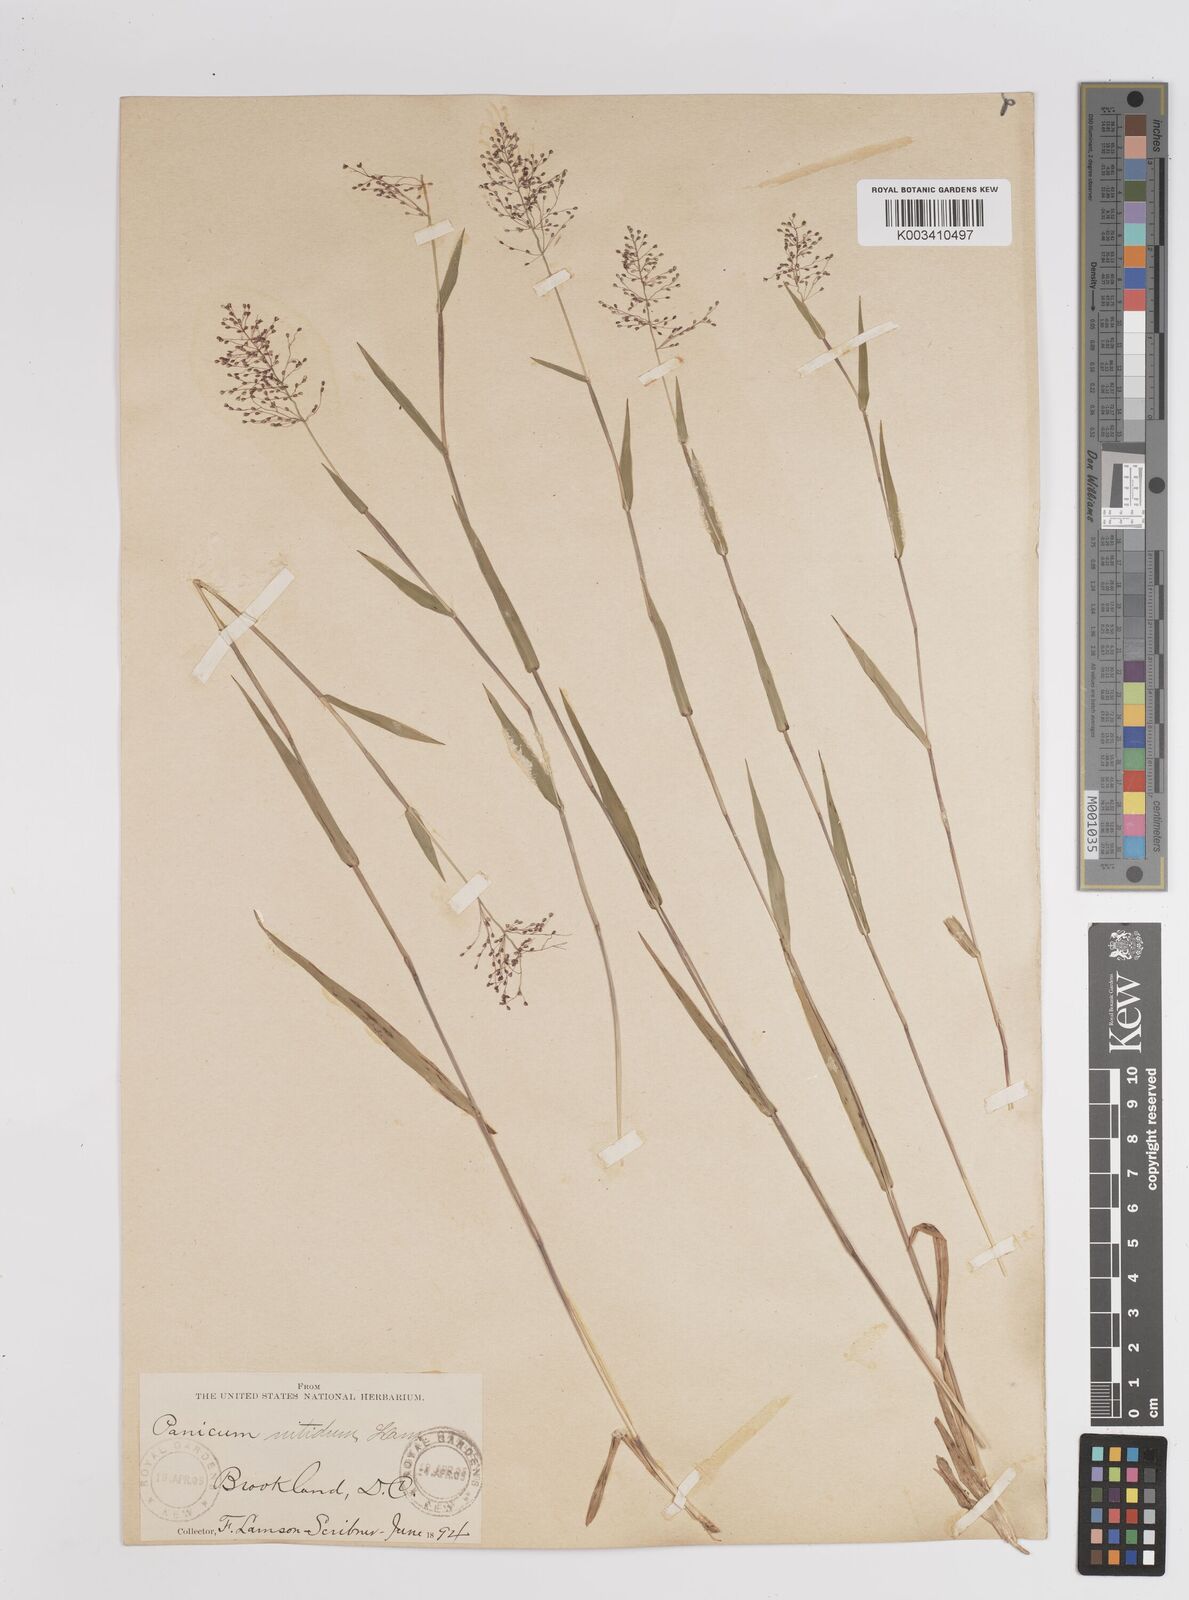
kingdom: Plantae
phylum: Tracheophyta
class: Liliopsida
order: Poales
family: Poaceae
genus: Dichanthelium
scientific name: Dichanthelium polyanthes
